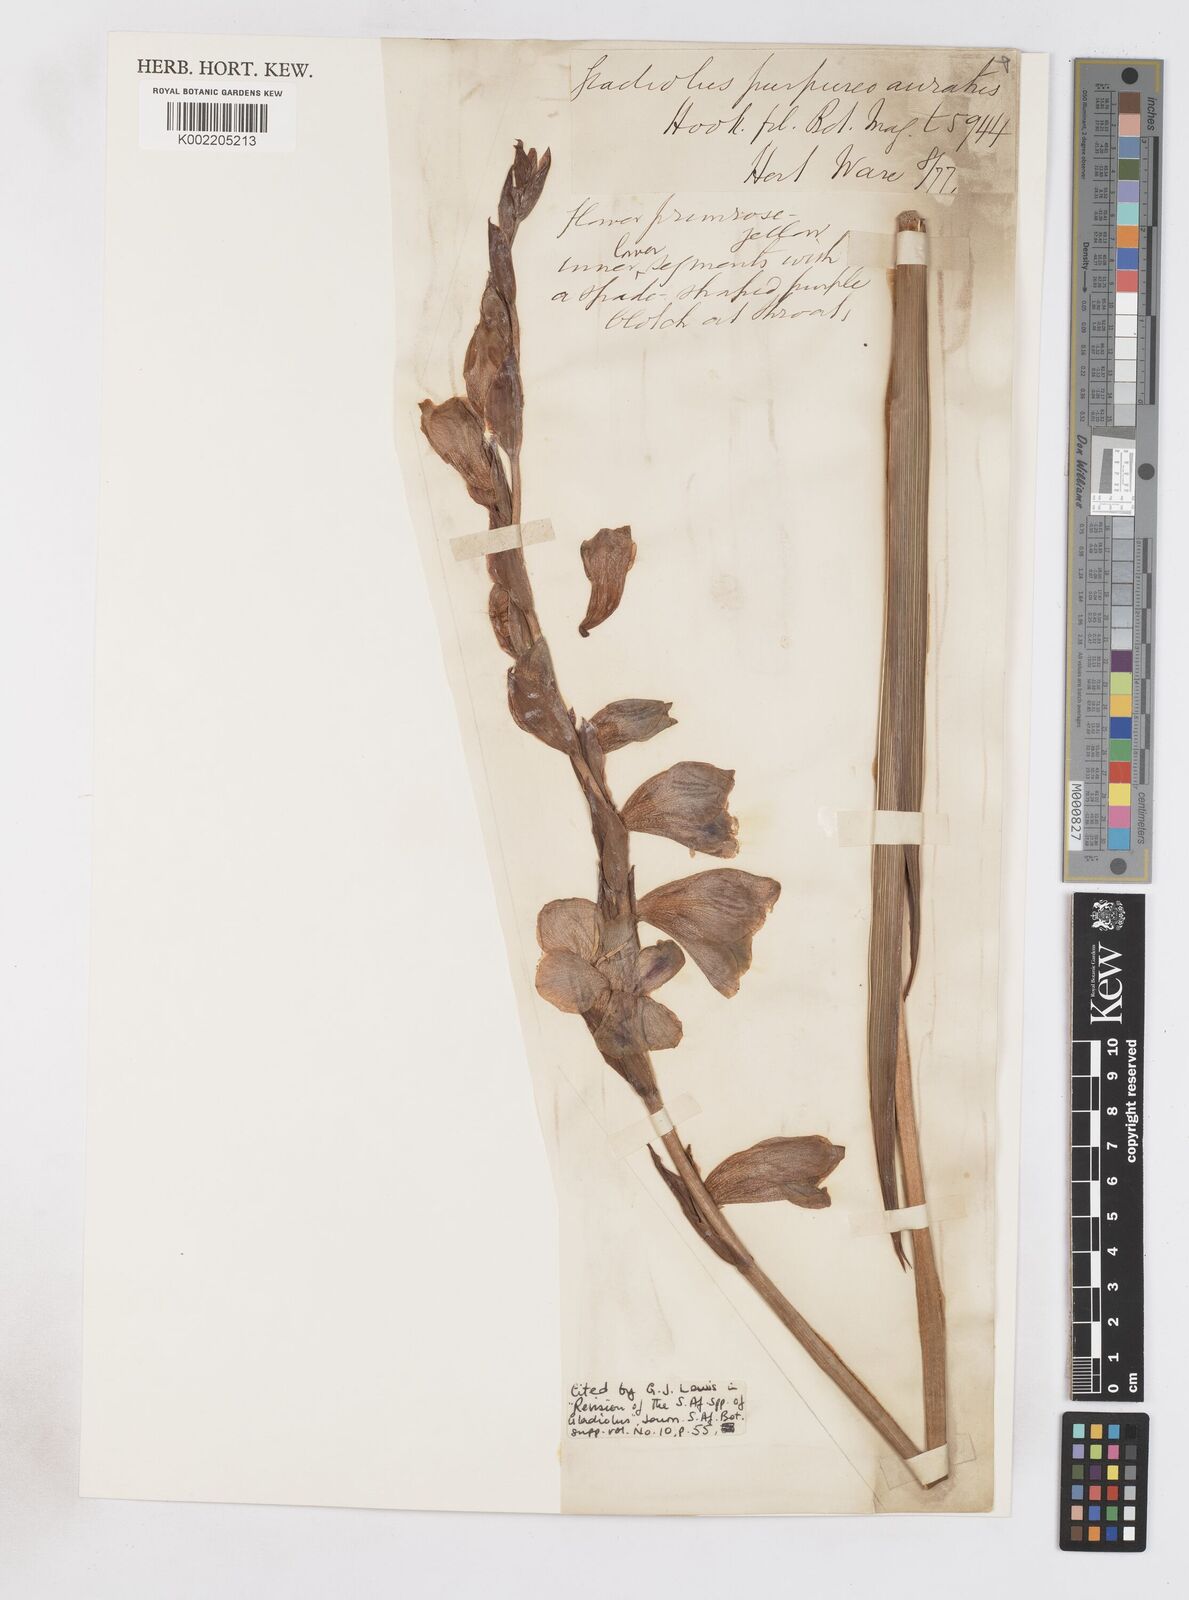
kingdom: Plantae
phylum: Tracheophyta
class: Liliopsida
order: Asparagales
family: Iridaceae
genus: Gladiolus
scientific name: Gladiolus papilio
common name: Goldblotch gladiolus
